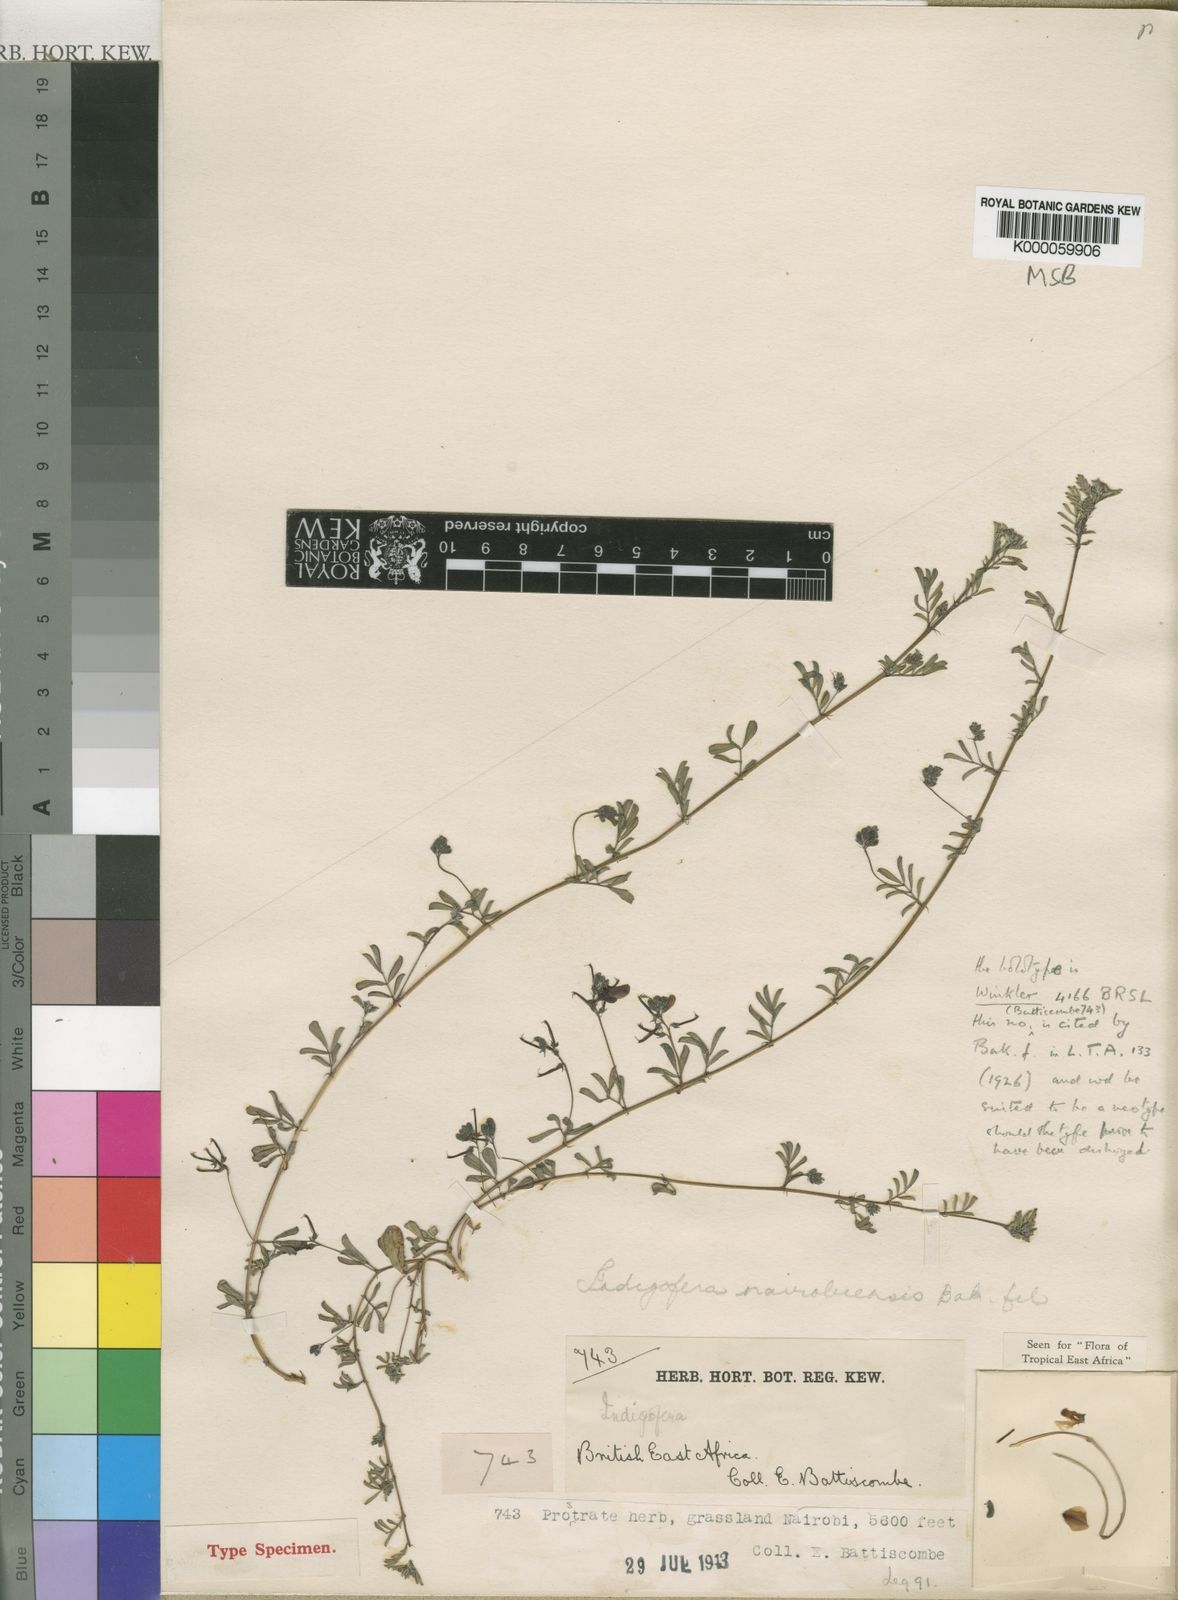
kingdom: Plantae
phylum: Tracheophyta
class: Magnoliopsida
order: Fabales
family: Fabaceae
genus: Indigofera
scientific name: Indigofera nairobiensis
